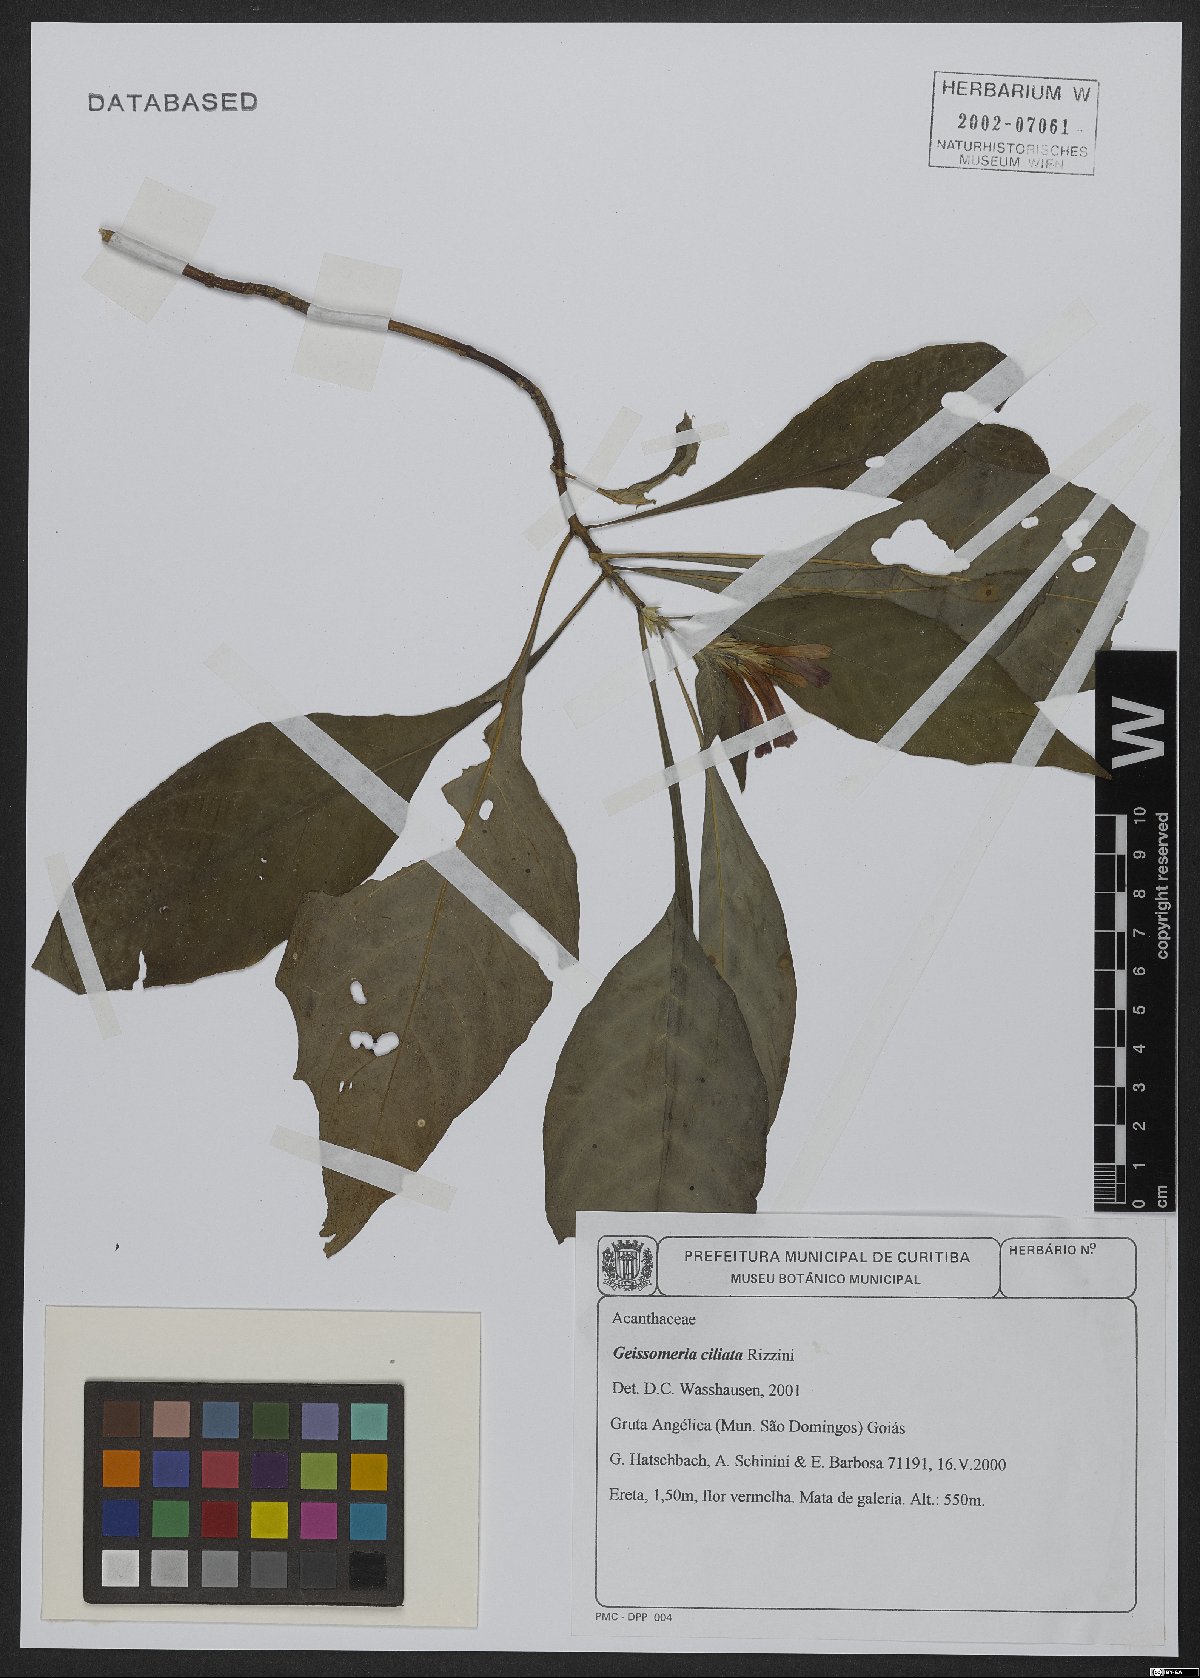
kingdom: Plantae
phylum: Tracheophyta
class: Magnoliopsida
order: Lamiales
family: Acanthaceae
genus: Aphelandra
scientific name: Aphelandra longiflora
